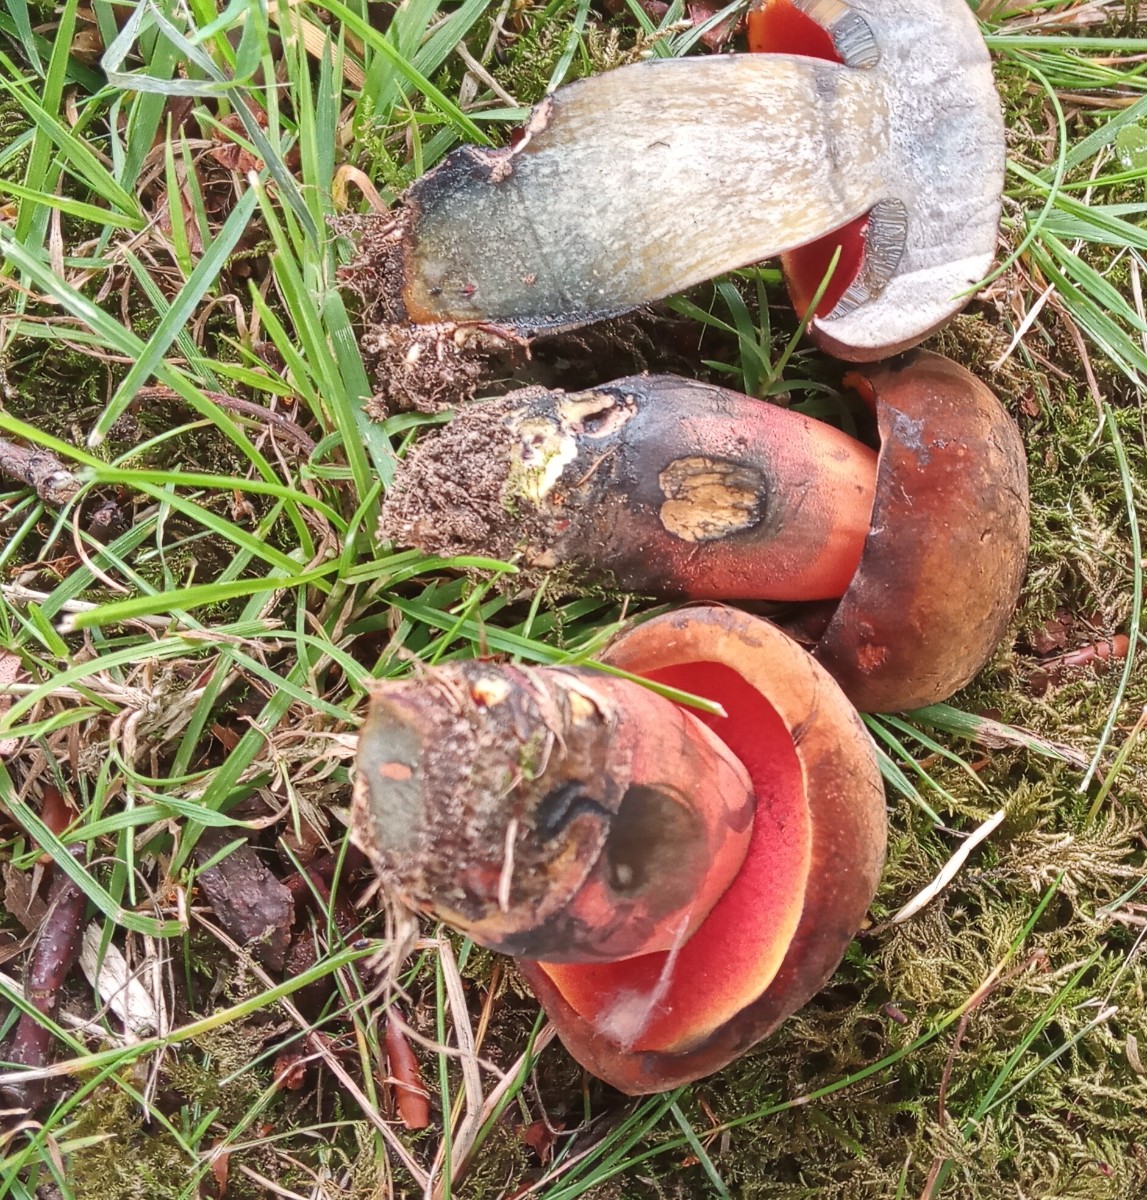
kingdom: Fungi
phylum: Basidiomycota
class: Agaricomycetes
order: Boletales
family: Boletaceae
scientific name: Boletaceae
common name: rørhatfamilien
